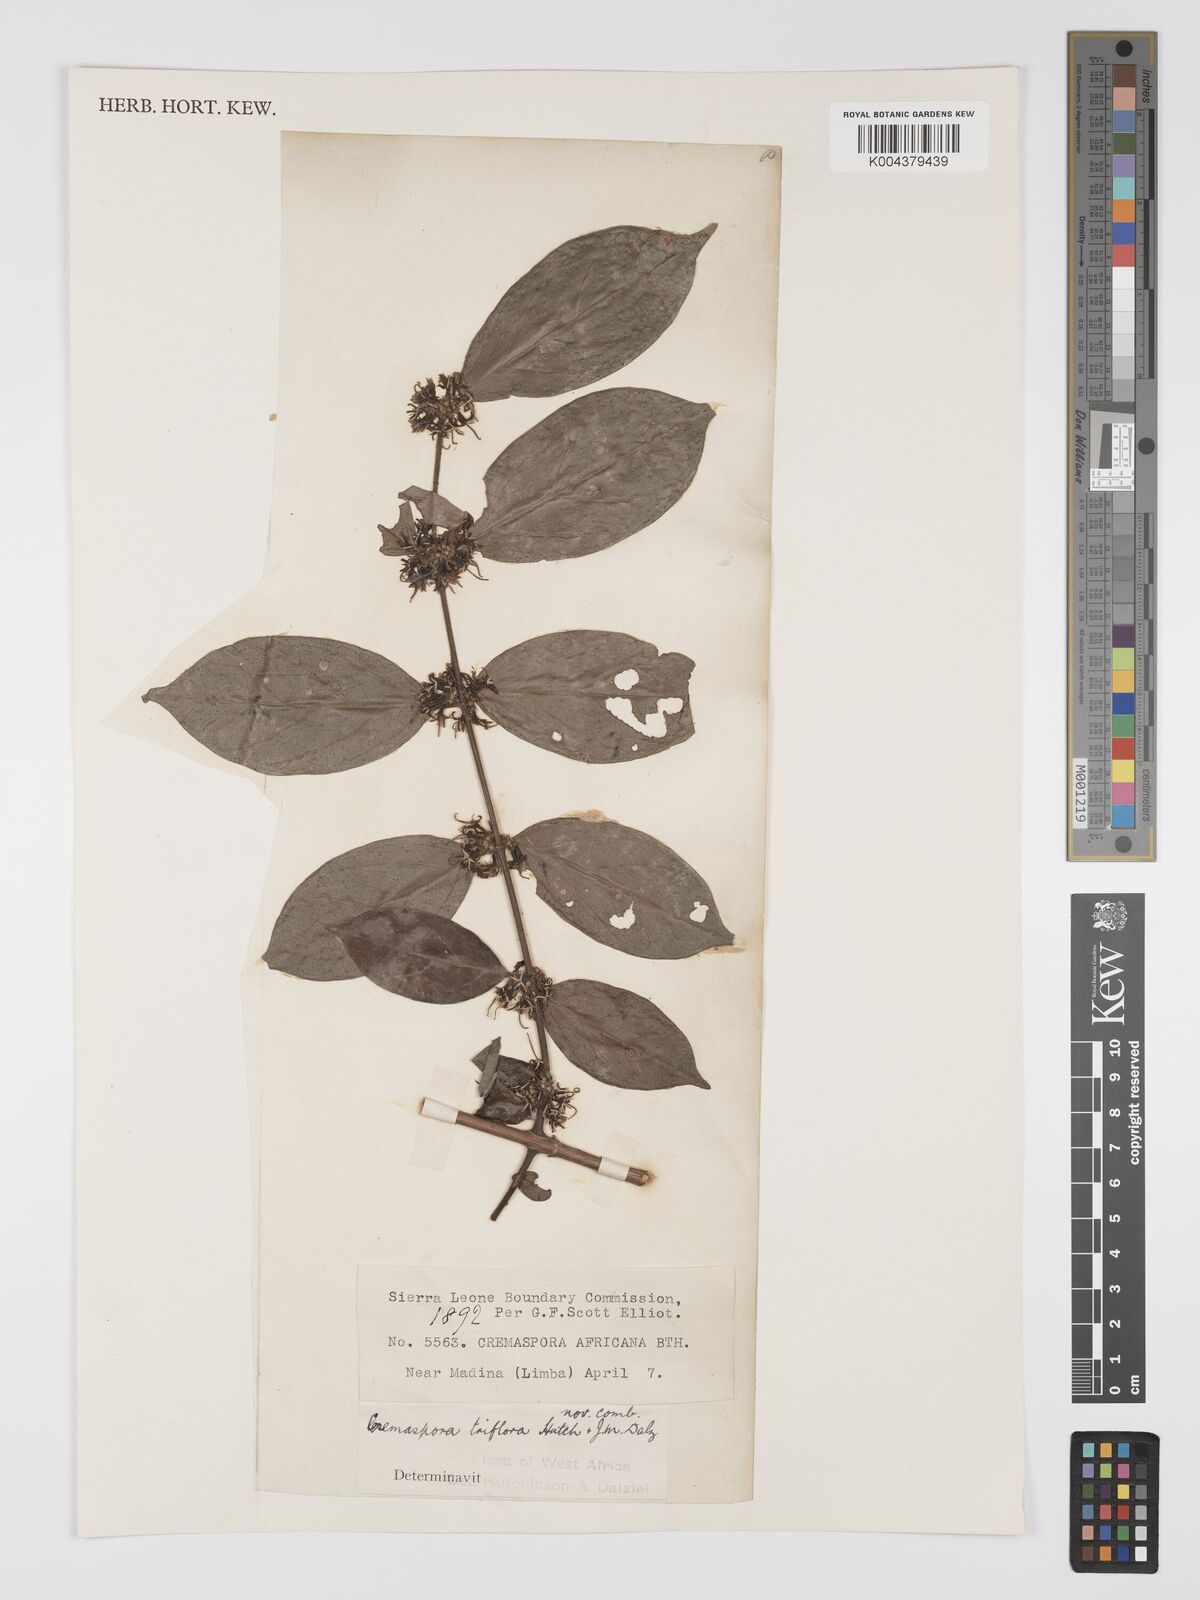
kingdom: Plantae
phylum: Tracheophyta
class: Magnoliopsida
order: Gentianales
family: Rubiaceae
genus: Cremaspora
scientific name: Cremaspora triflora
